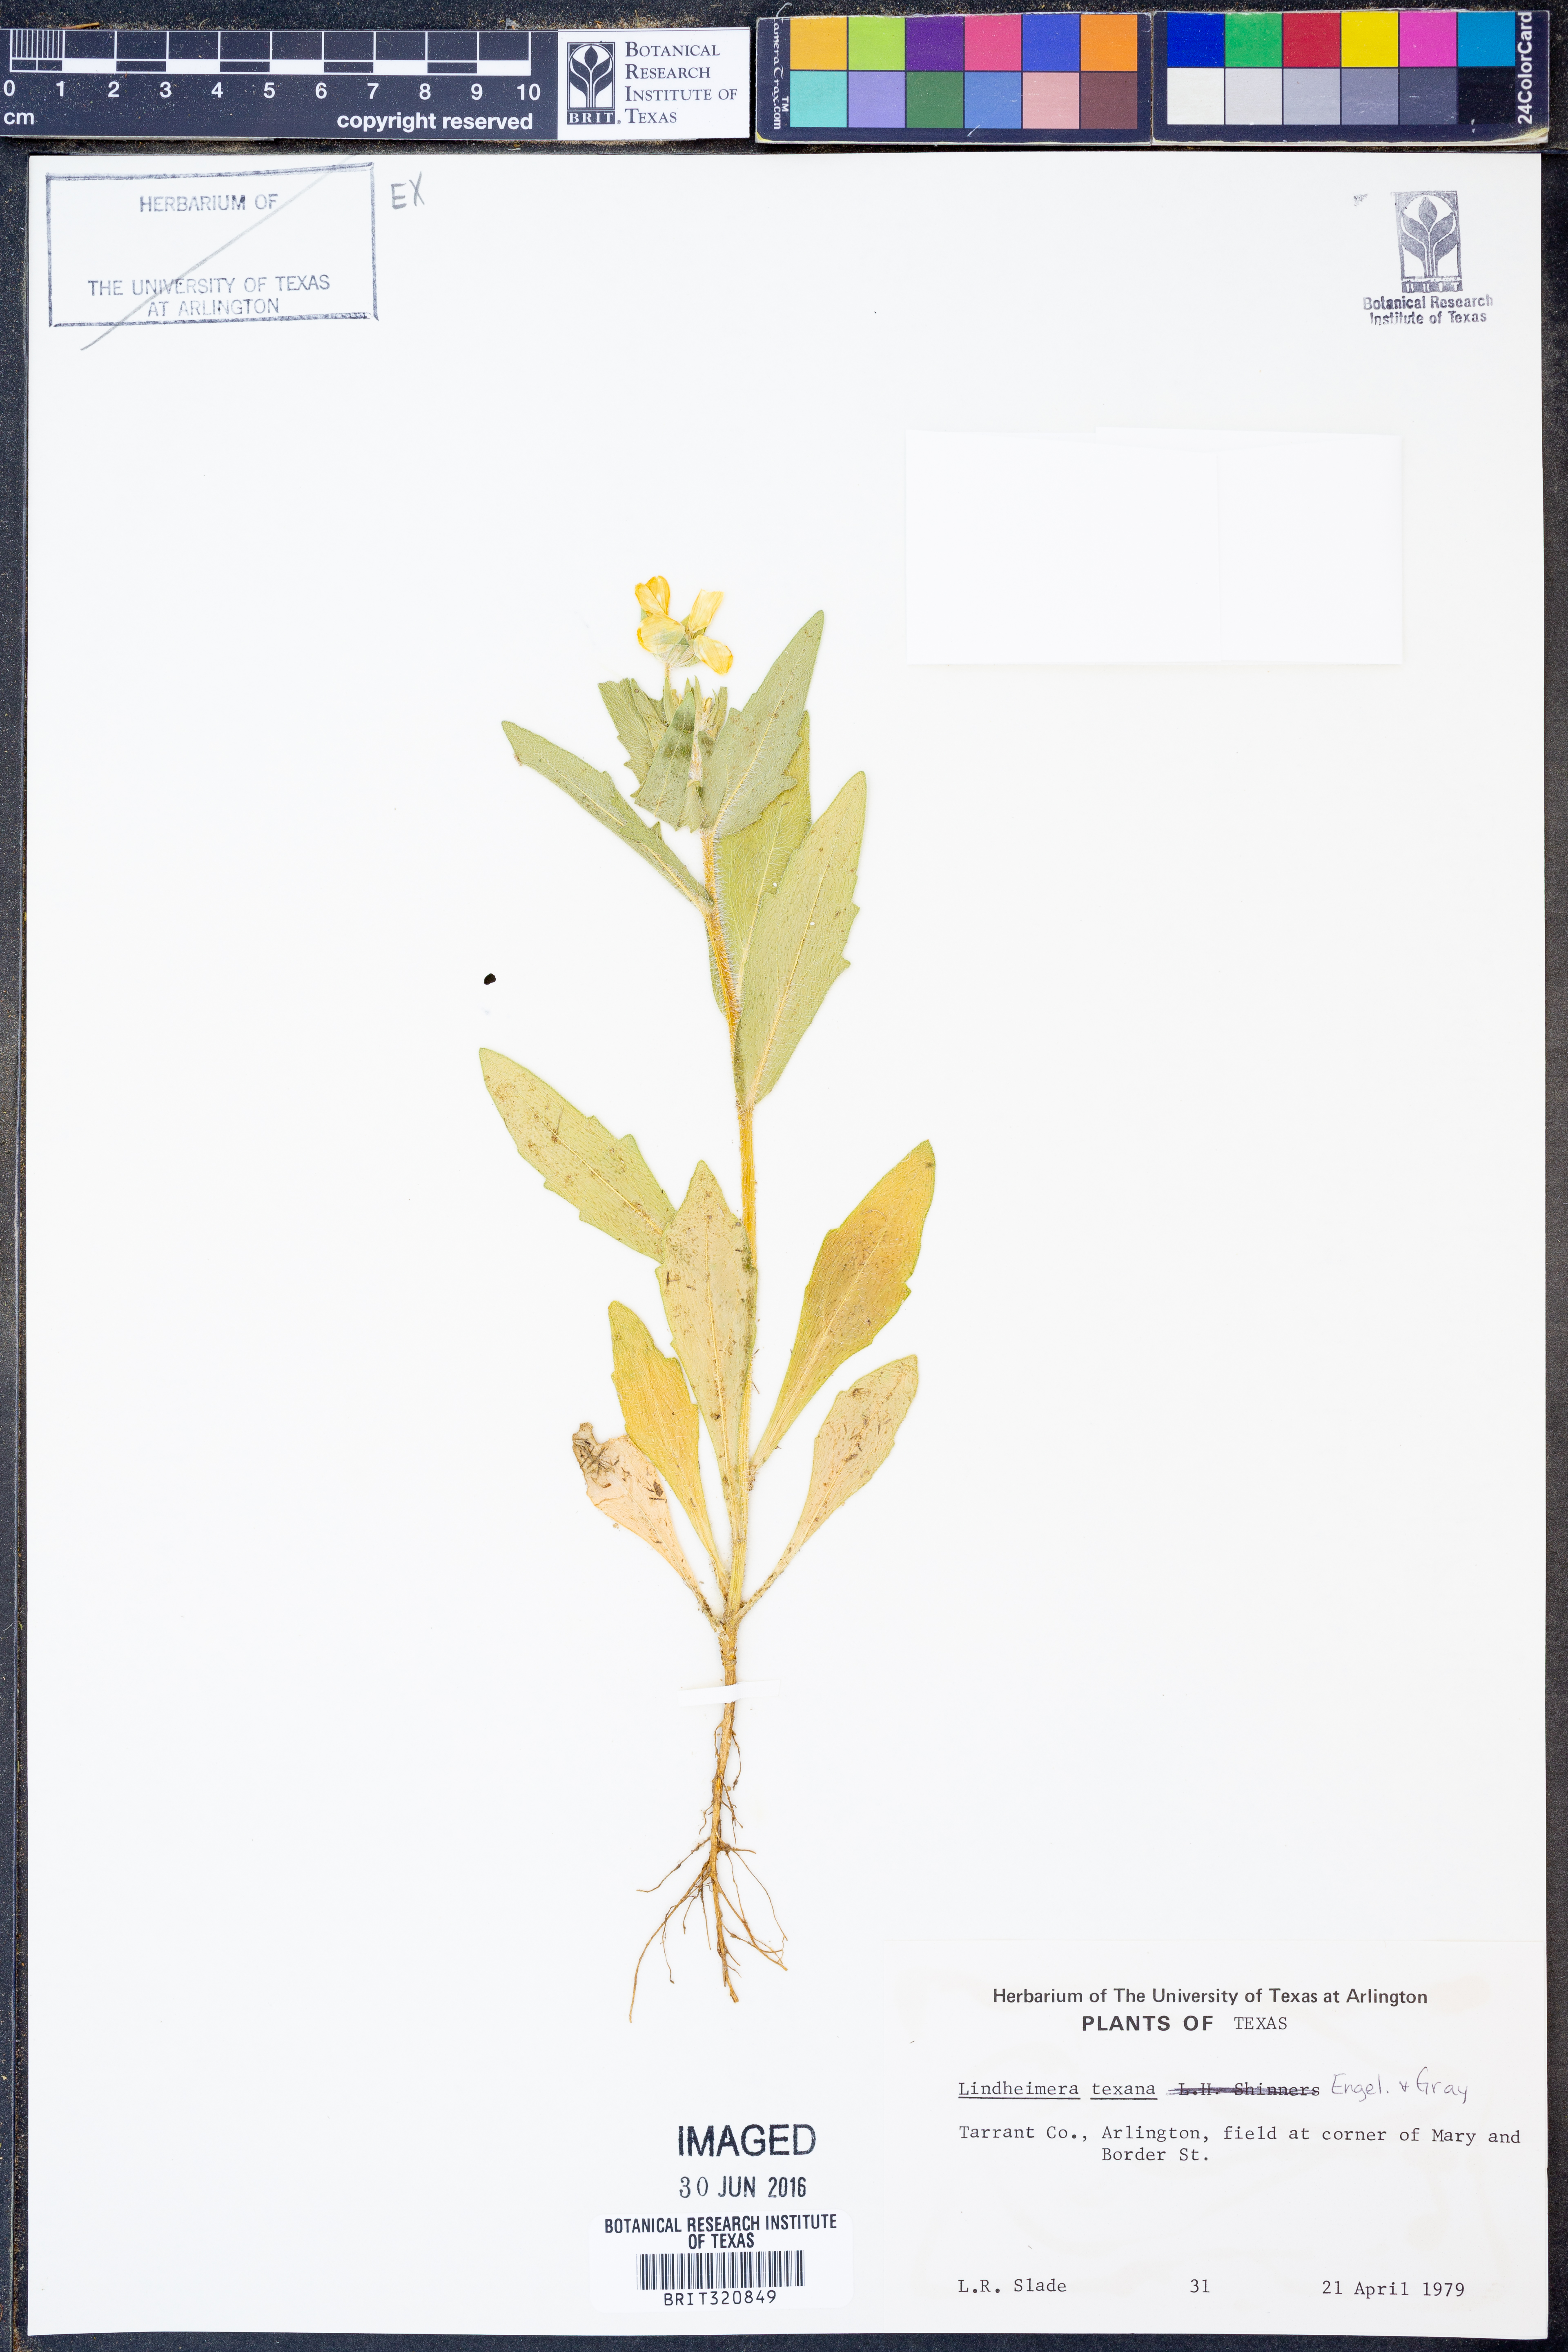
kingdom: Plantae
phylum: Tracheophyta
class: Magnoliopsida
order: Asterales
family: Asteraceae
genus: Lindheimera
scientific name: Lindheimera texana
